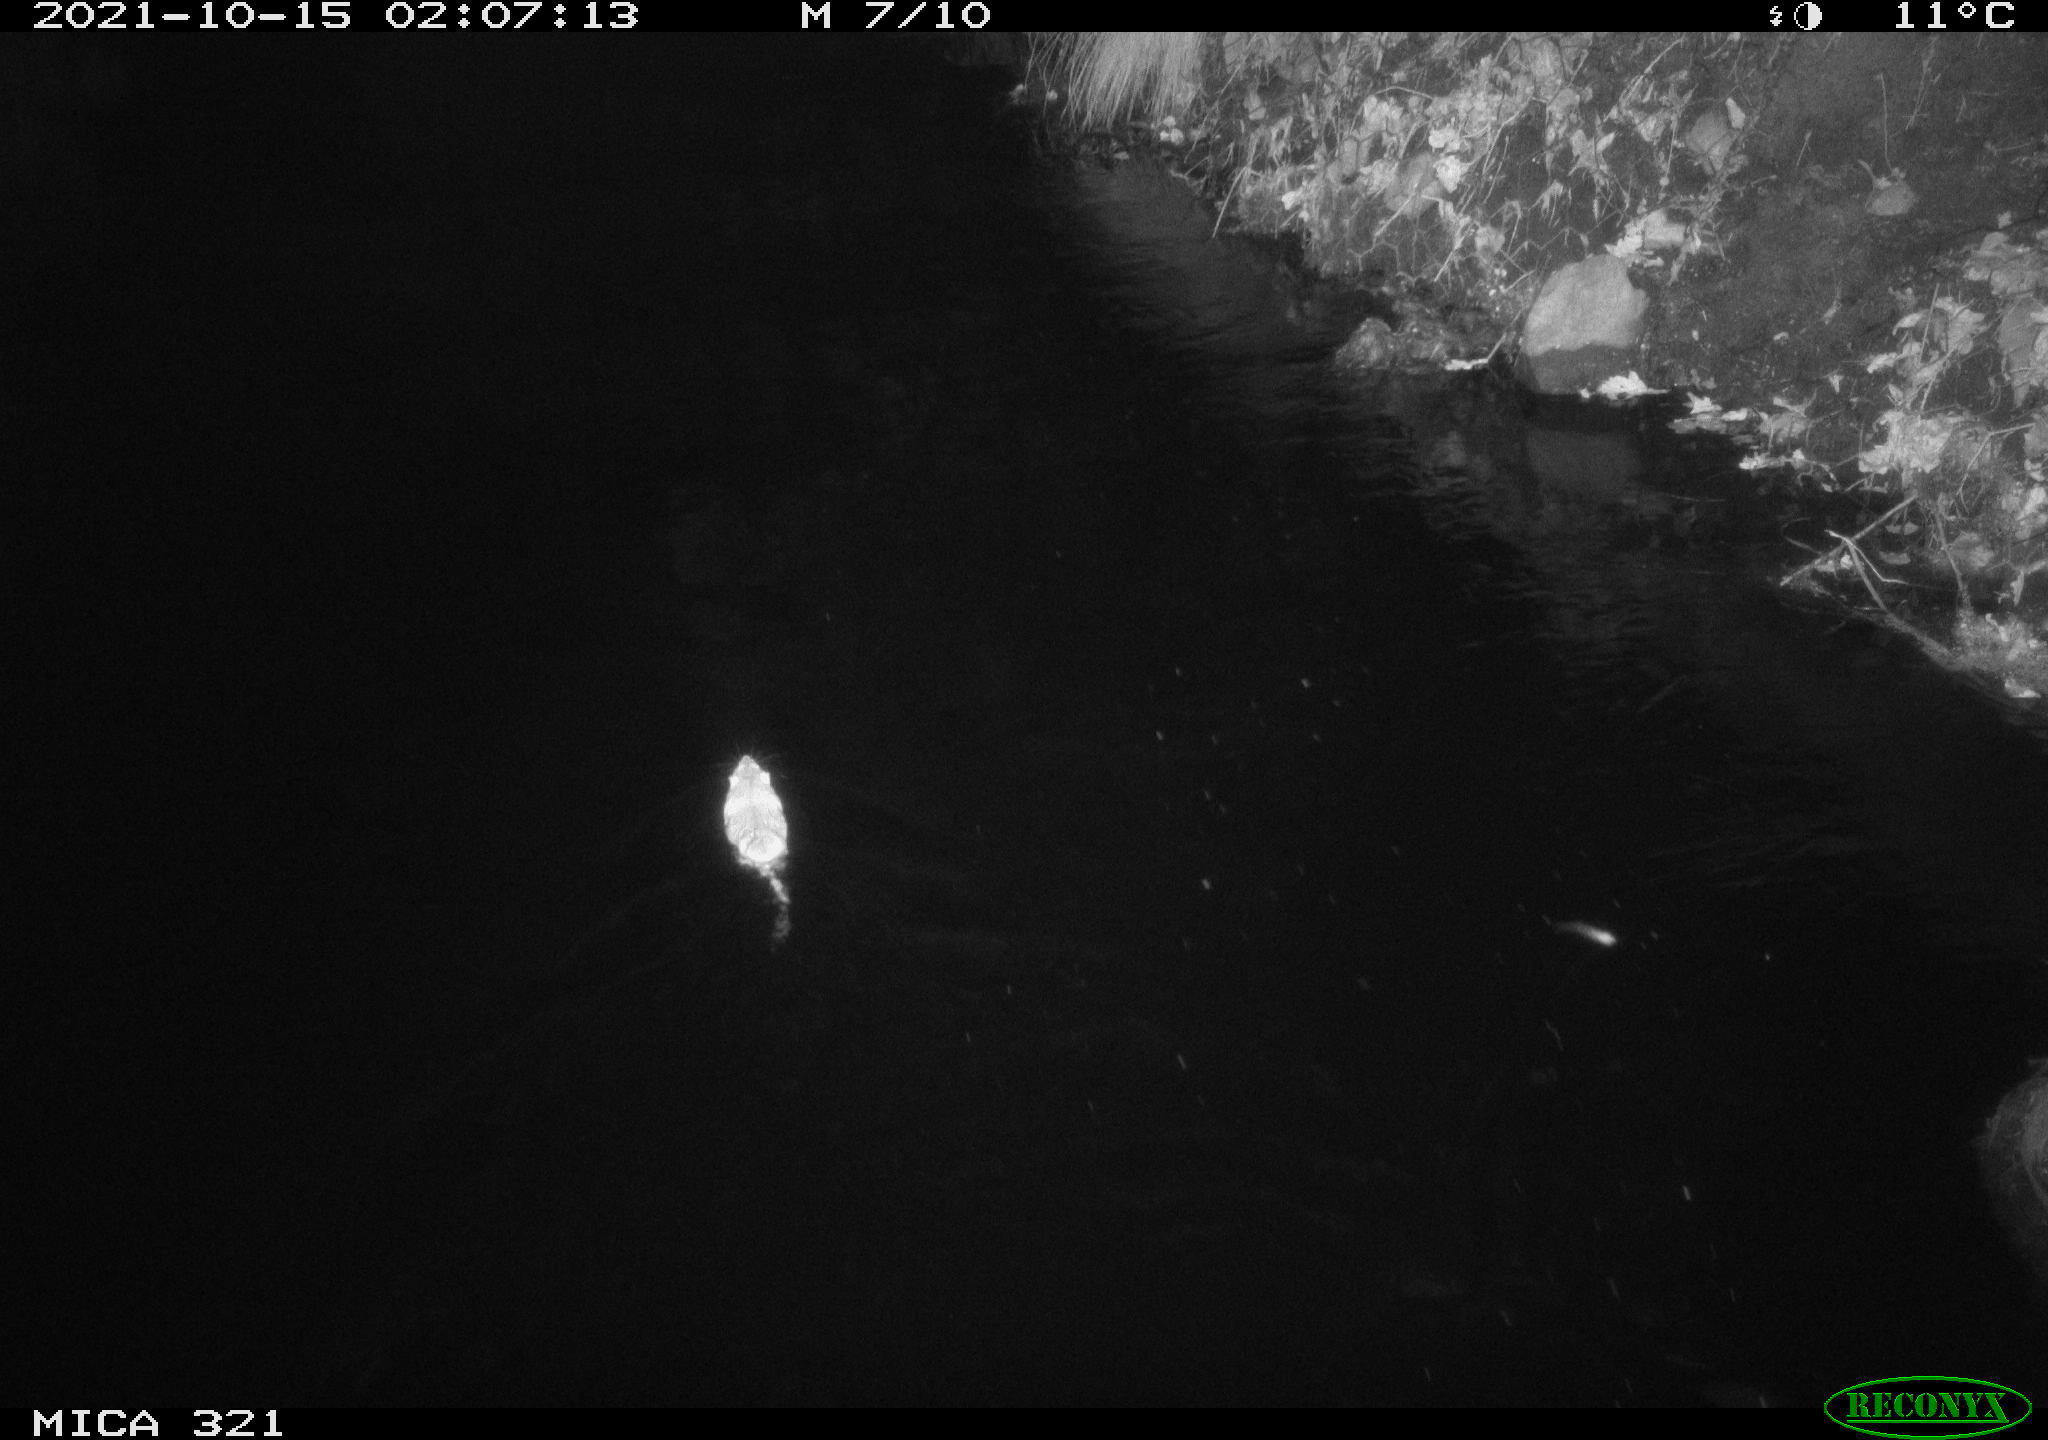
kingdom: Animalia
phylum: Chordata
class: Mammalia
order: Rodentia
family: Muridae
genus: Rattus
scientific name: Rattus norvegicus
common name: Brown rat
